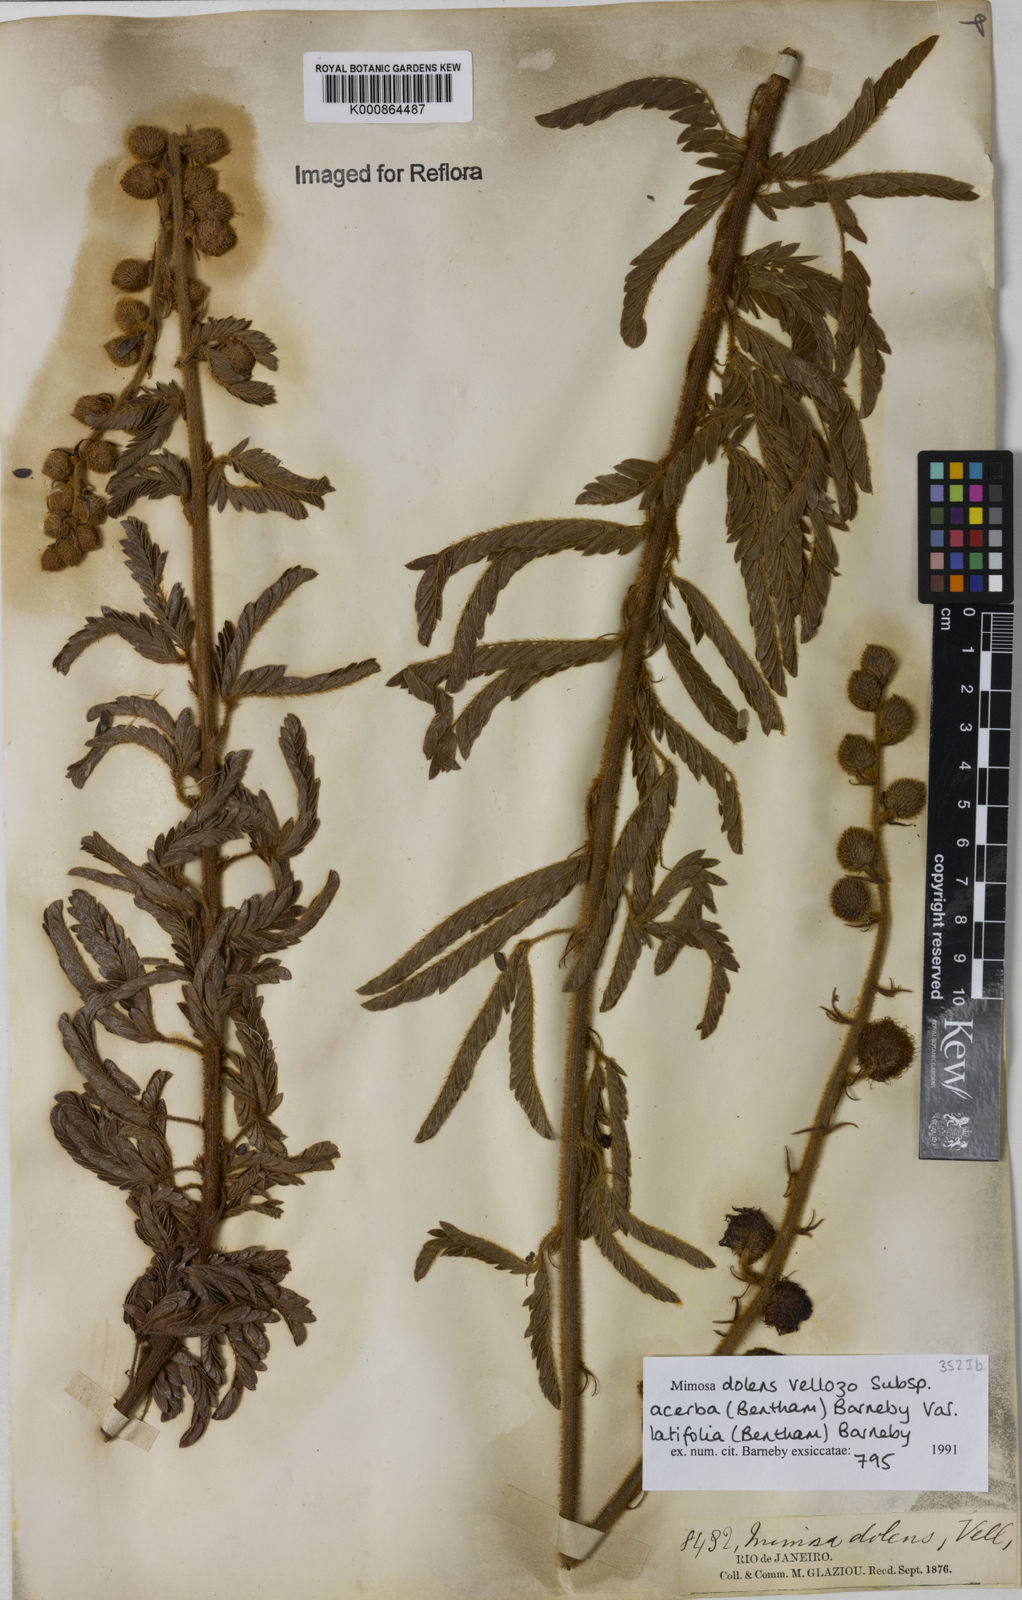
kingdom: Plantae
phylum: Tracheophyta
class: Magnoliopsida
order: Fabales
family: Fabaceae
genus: Mimosa
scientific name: Mimosa dolens
